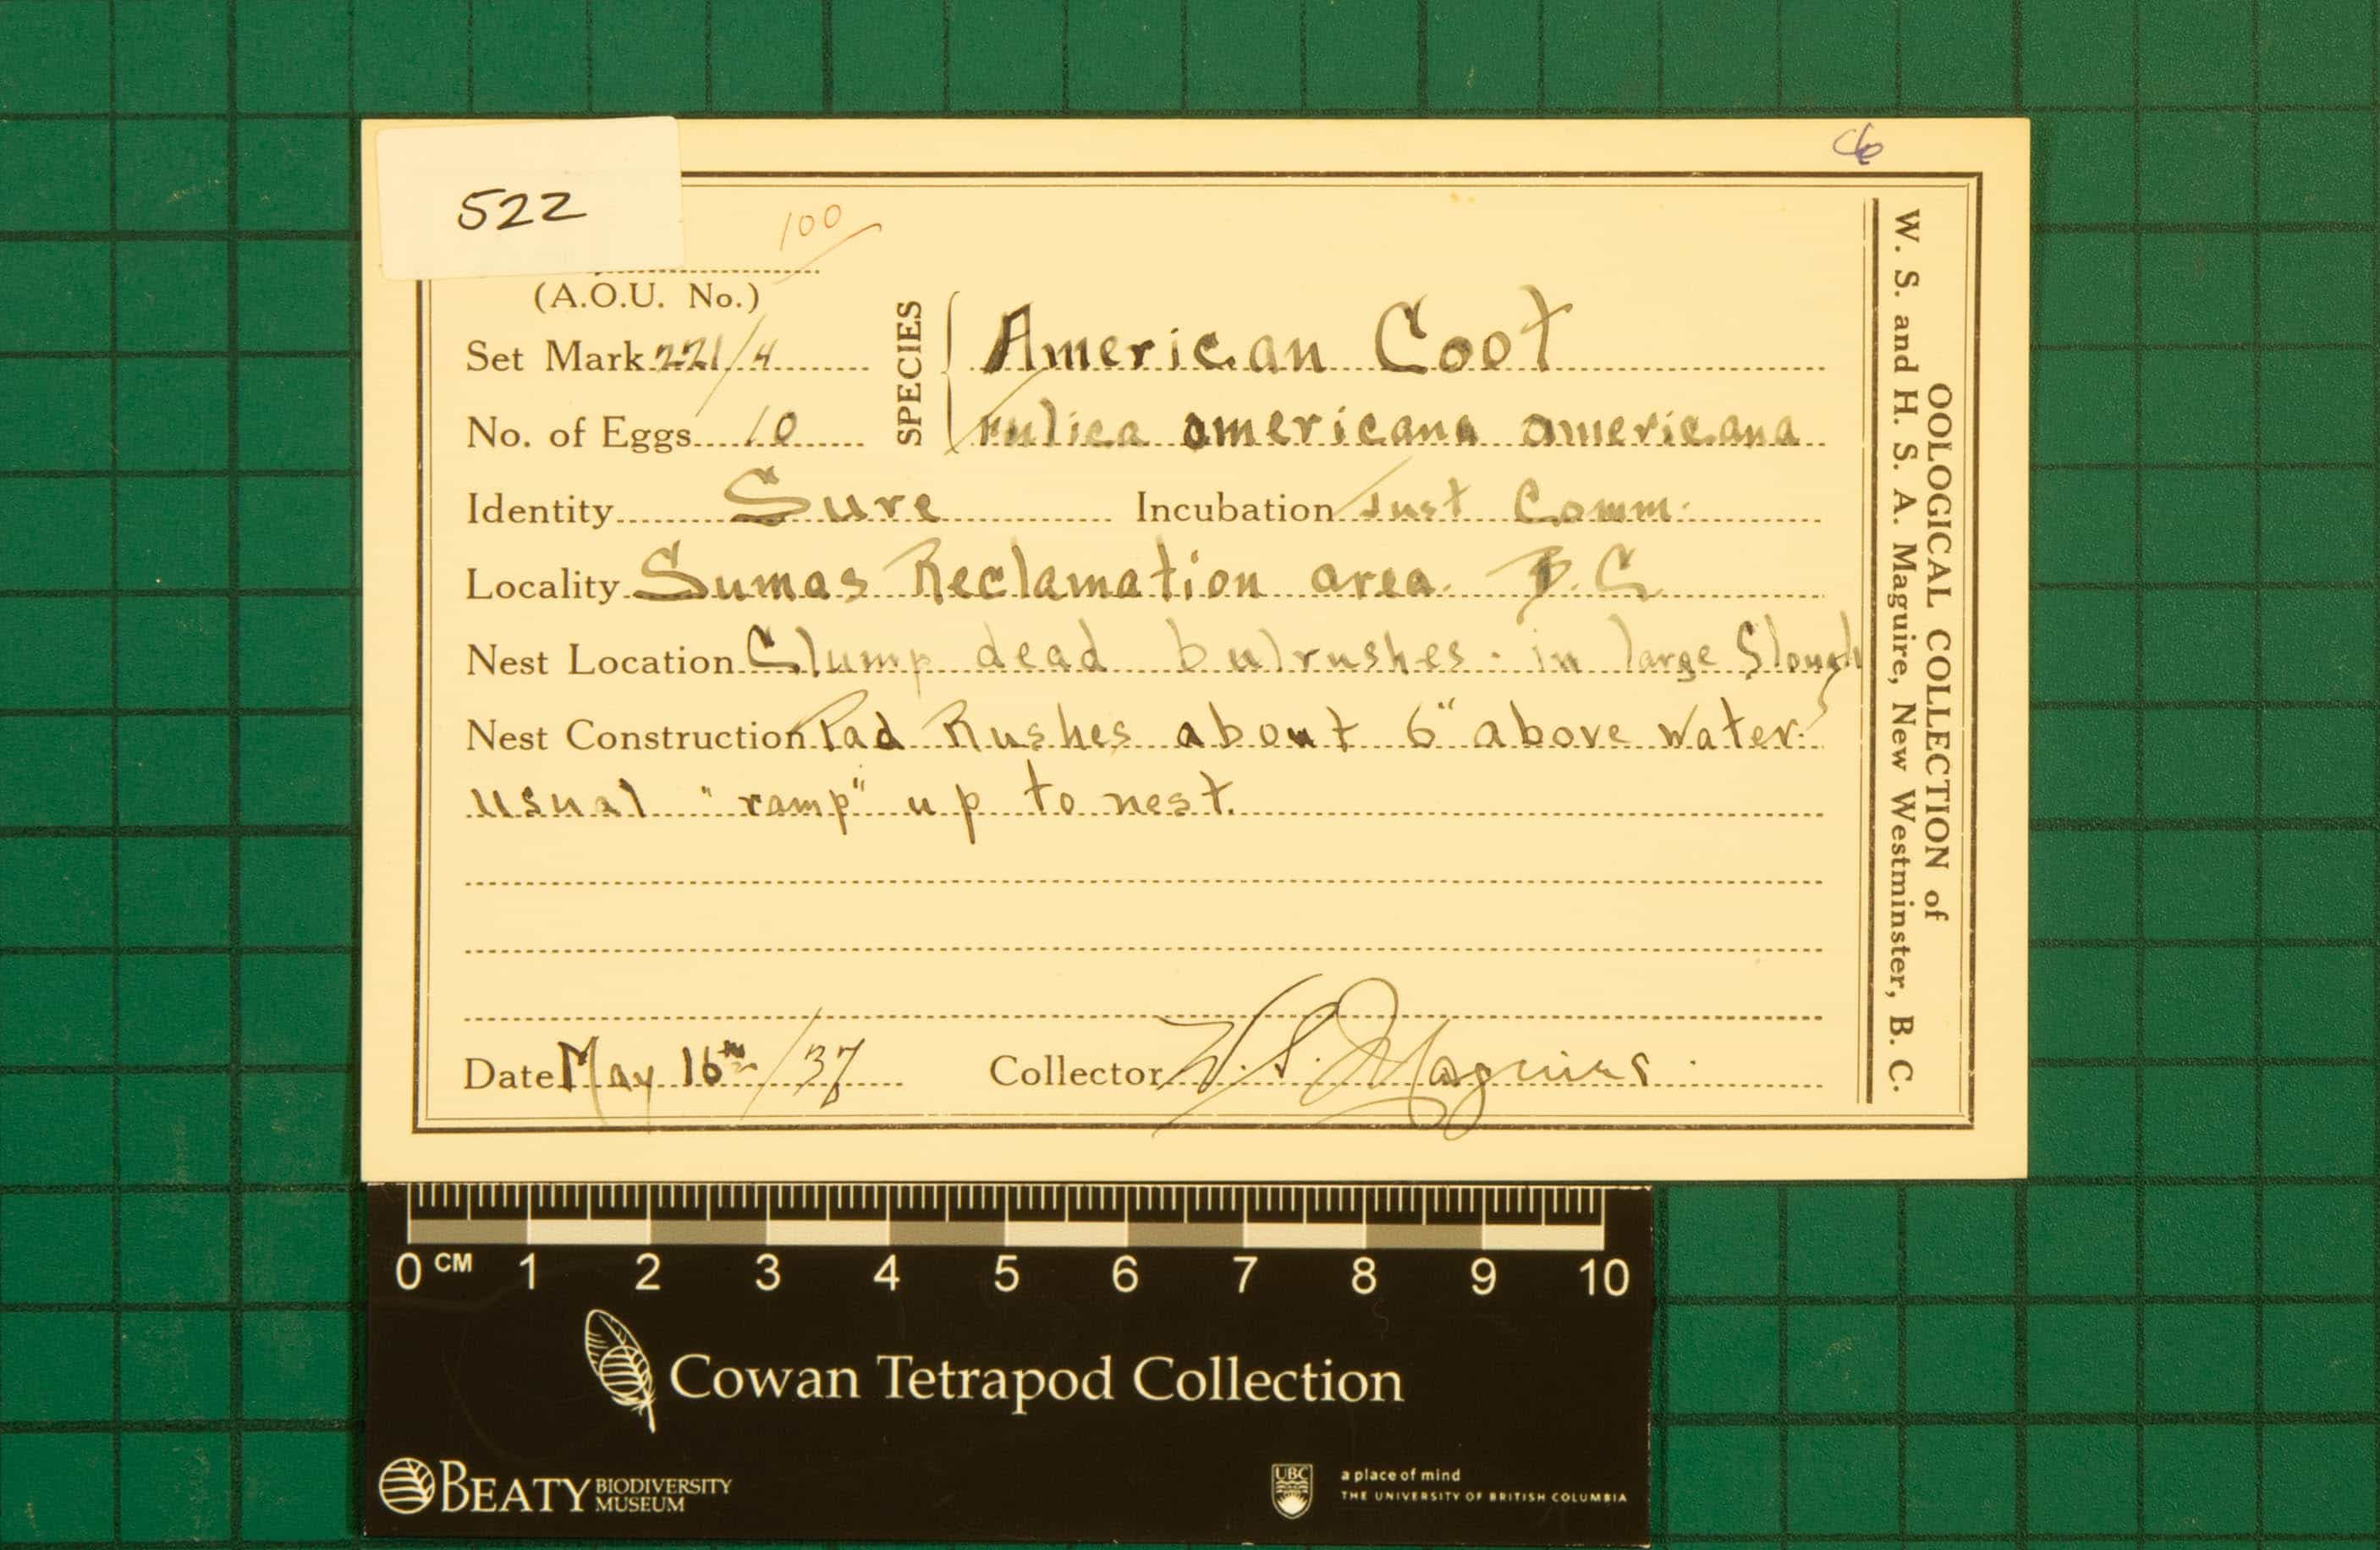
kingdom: Animalia
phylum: Chordata
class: Aves
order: Gruiformes
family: Rallidae
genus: Fulica
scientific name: Fulica americana
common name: American Coot
